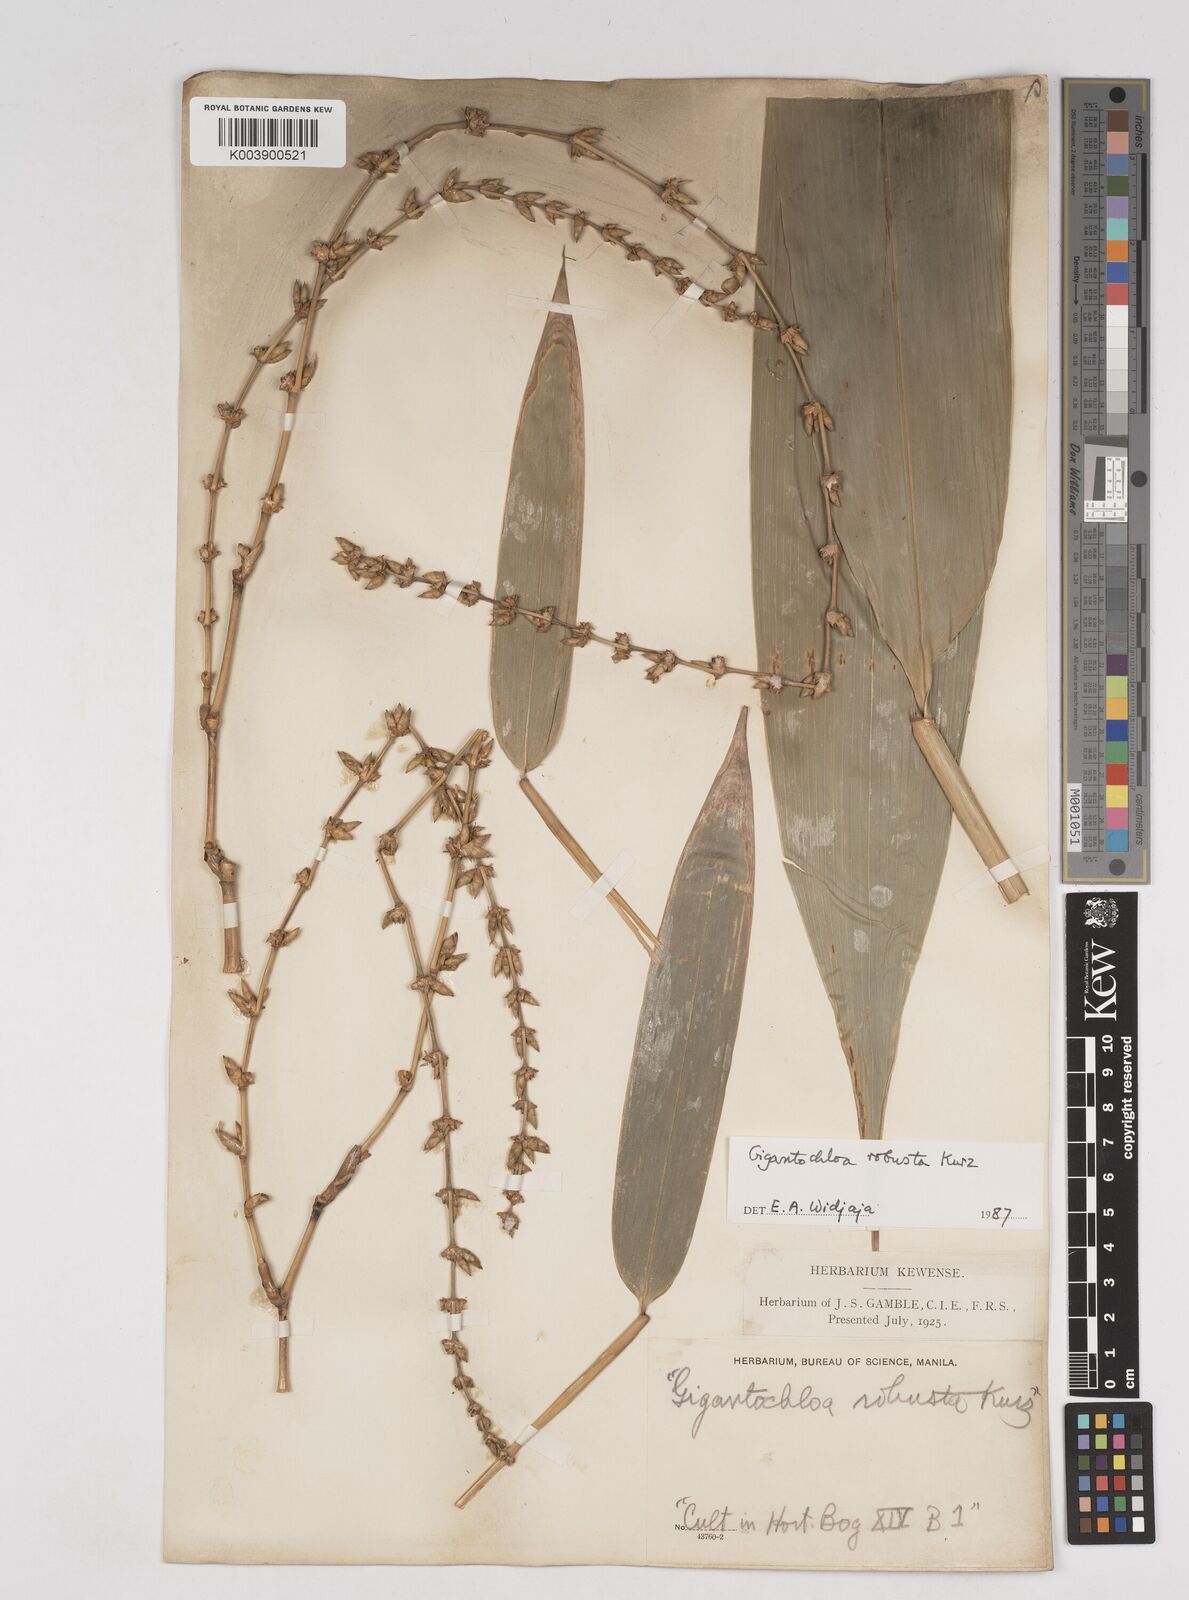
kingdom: Plantae
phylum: Tracheophyta
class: Liliopsida
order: Poales
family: Poaceae
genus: Gigantochloa
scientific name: Gigantochloa robusta
